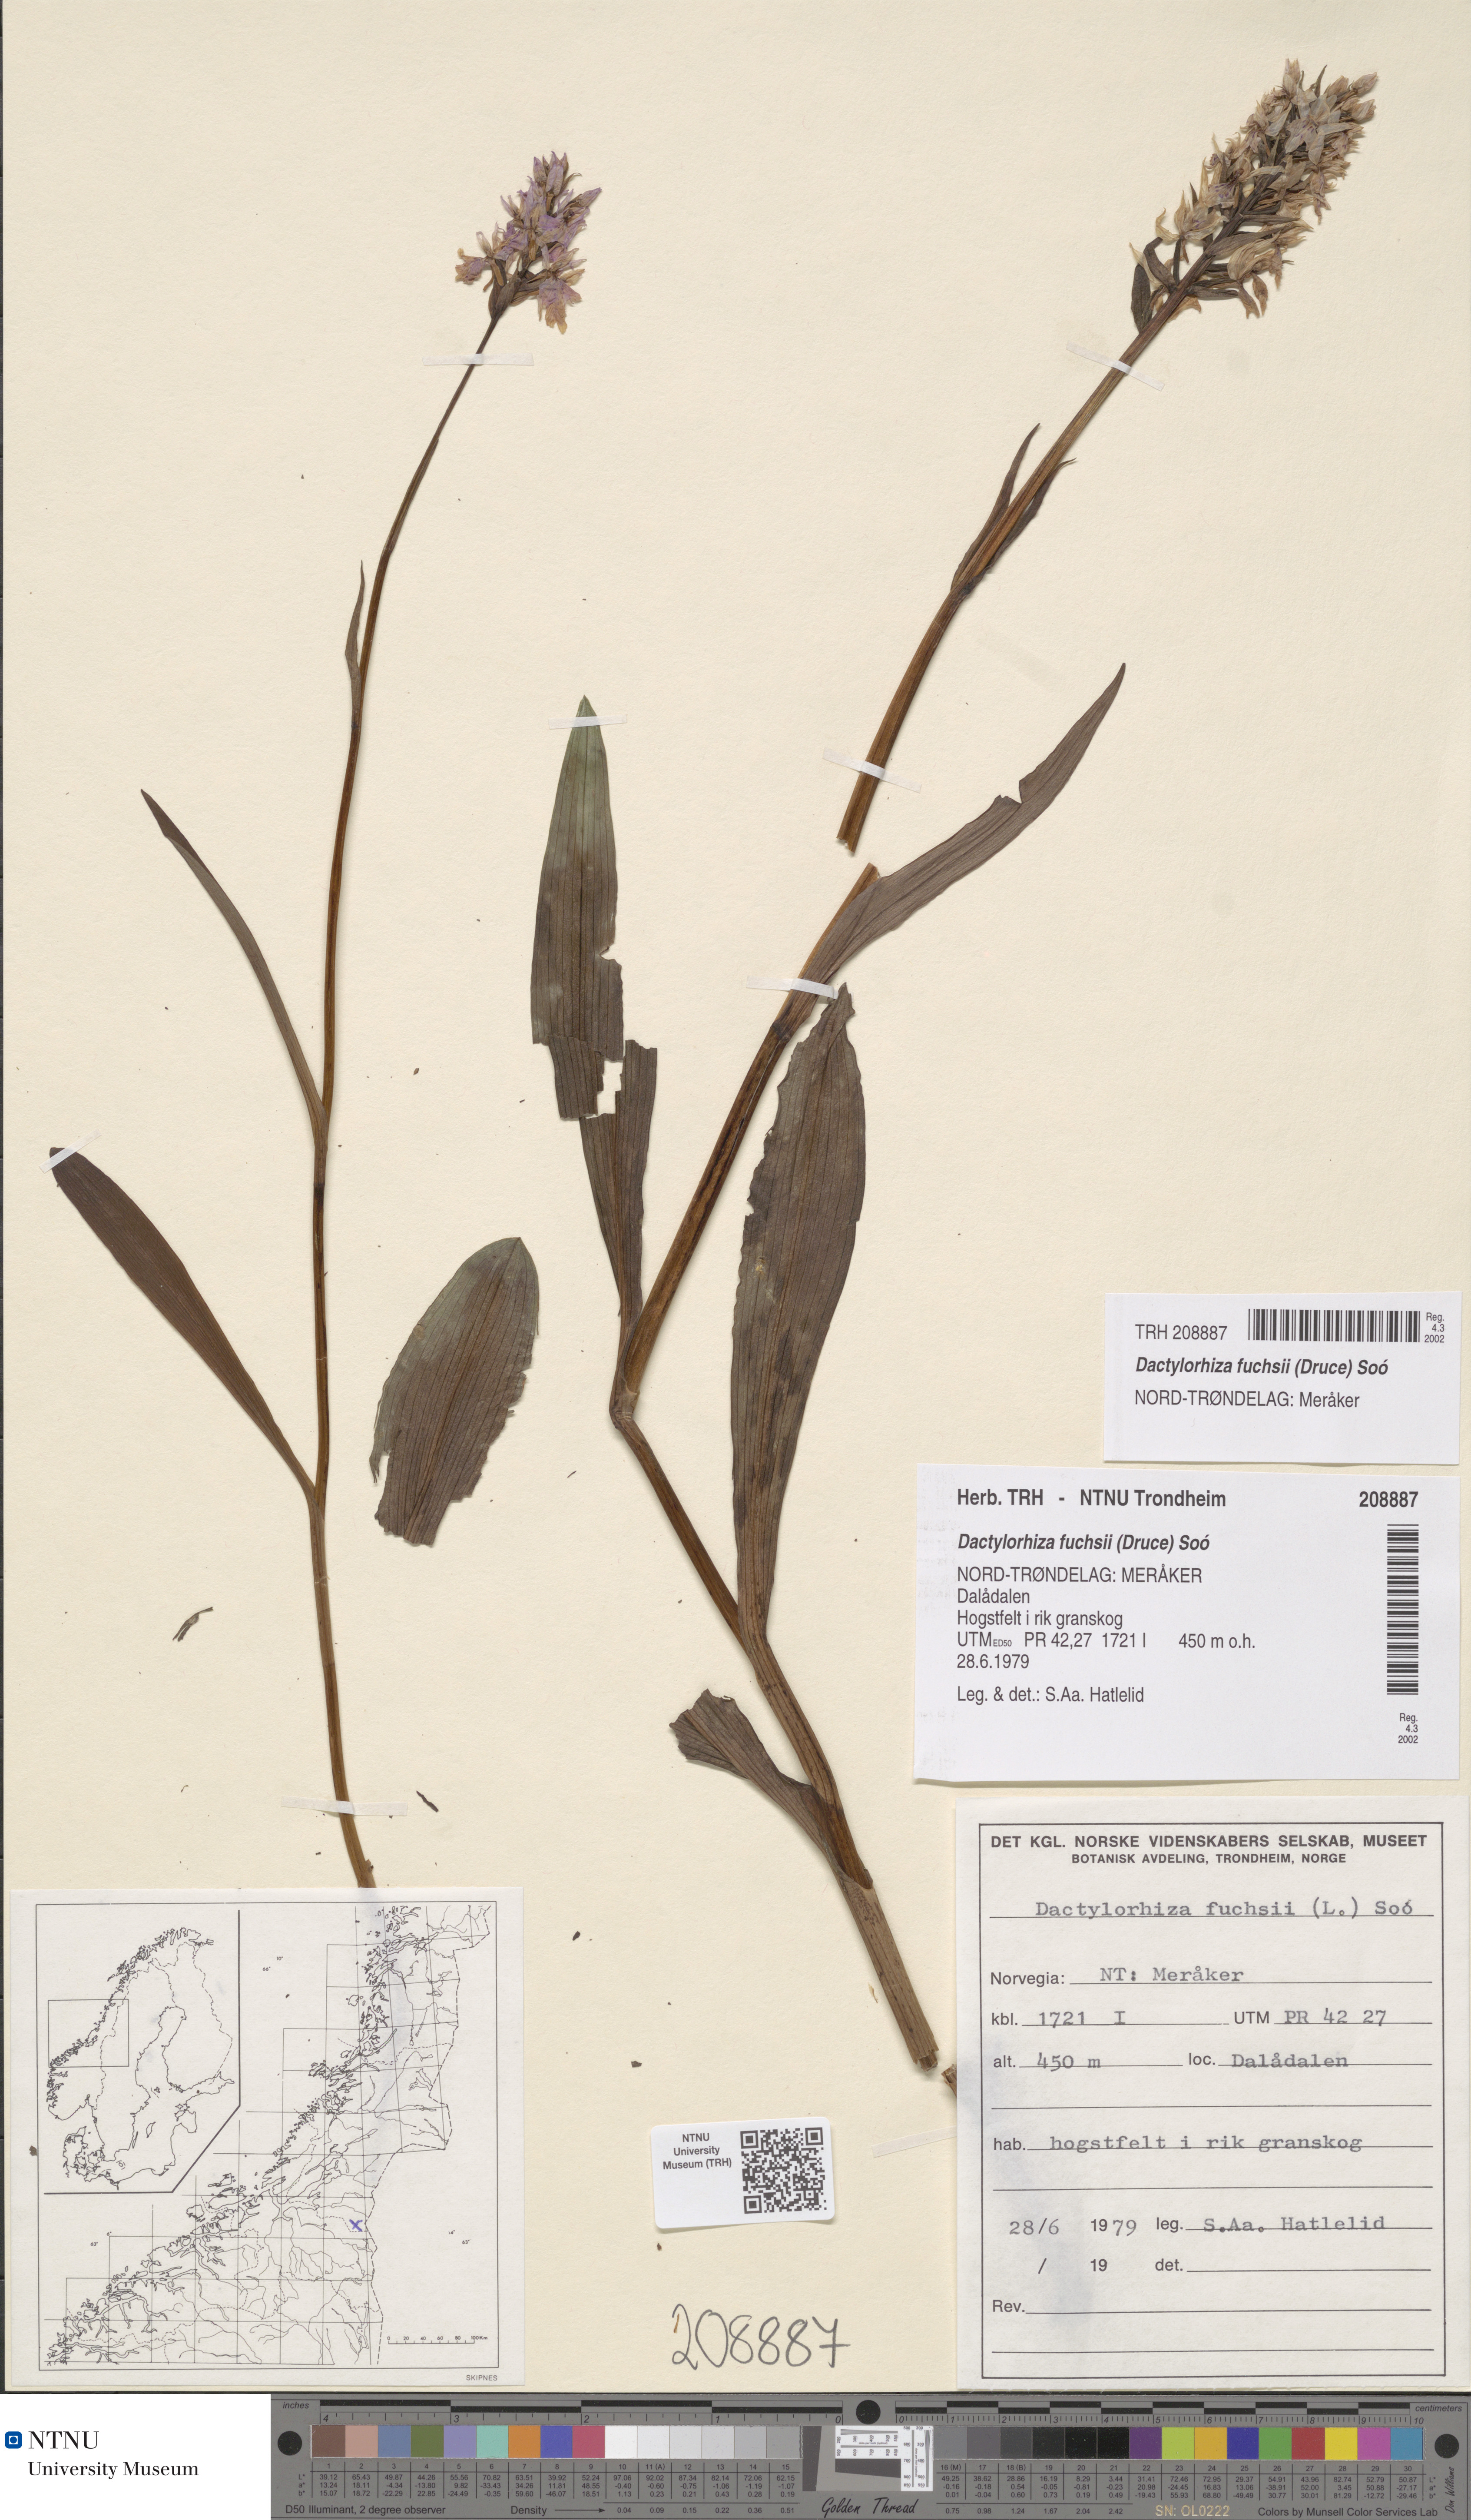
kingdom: Plantae
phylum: Tracheophyta
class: Liliopsida
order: Asparagales
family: Orchidaceae
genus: Dactylorhiza
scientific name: Dactylorhiza maculata
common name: Heath spotted-orchid
